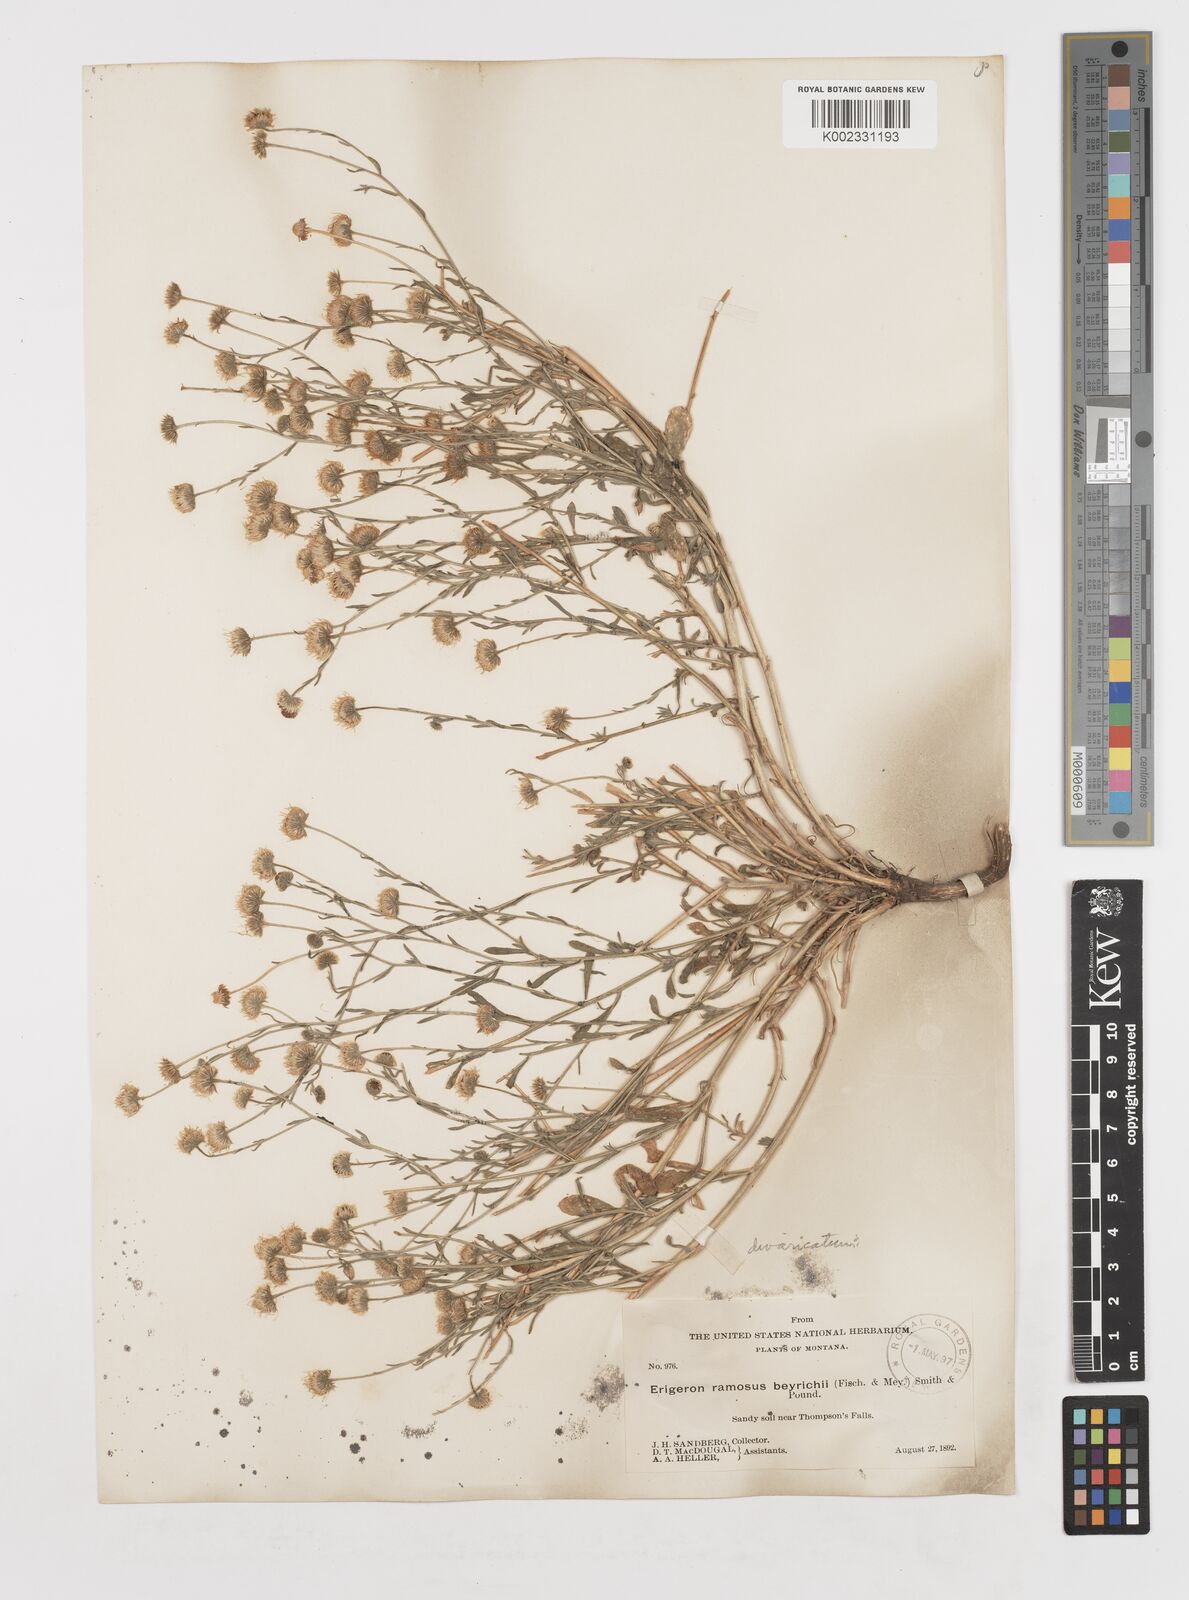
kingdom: Plantae
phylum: Tracheophyta
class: Magnoliopsida
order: Asterales
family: Asteraceae
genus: Erigeron
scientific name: Erigeron strigosus
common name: Common eastern fleabane
